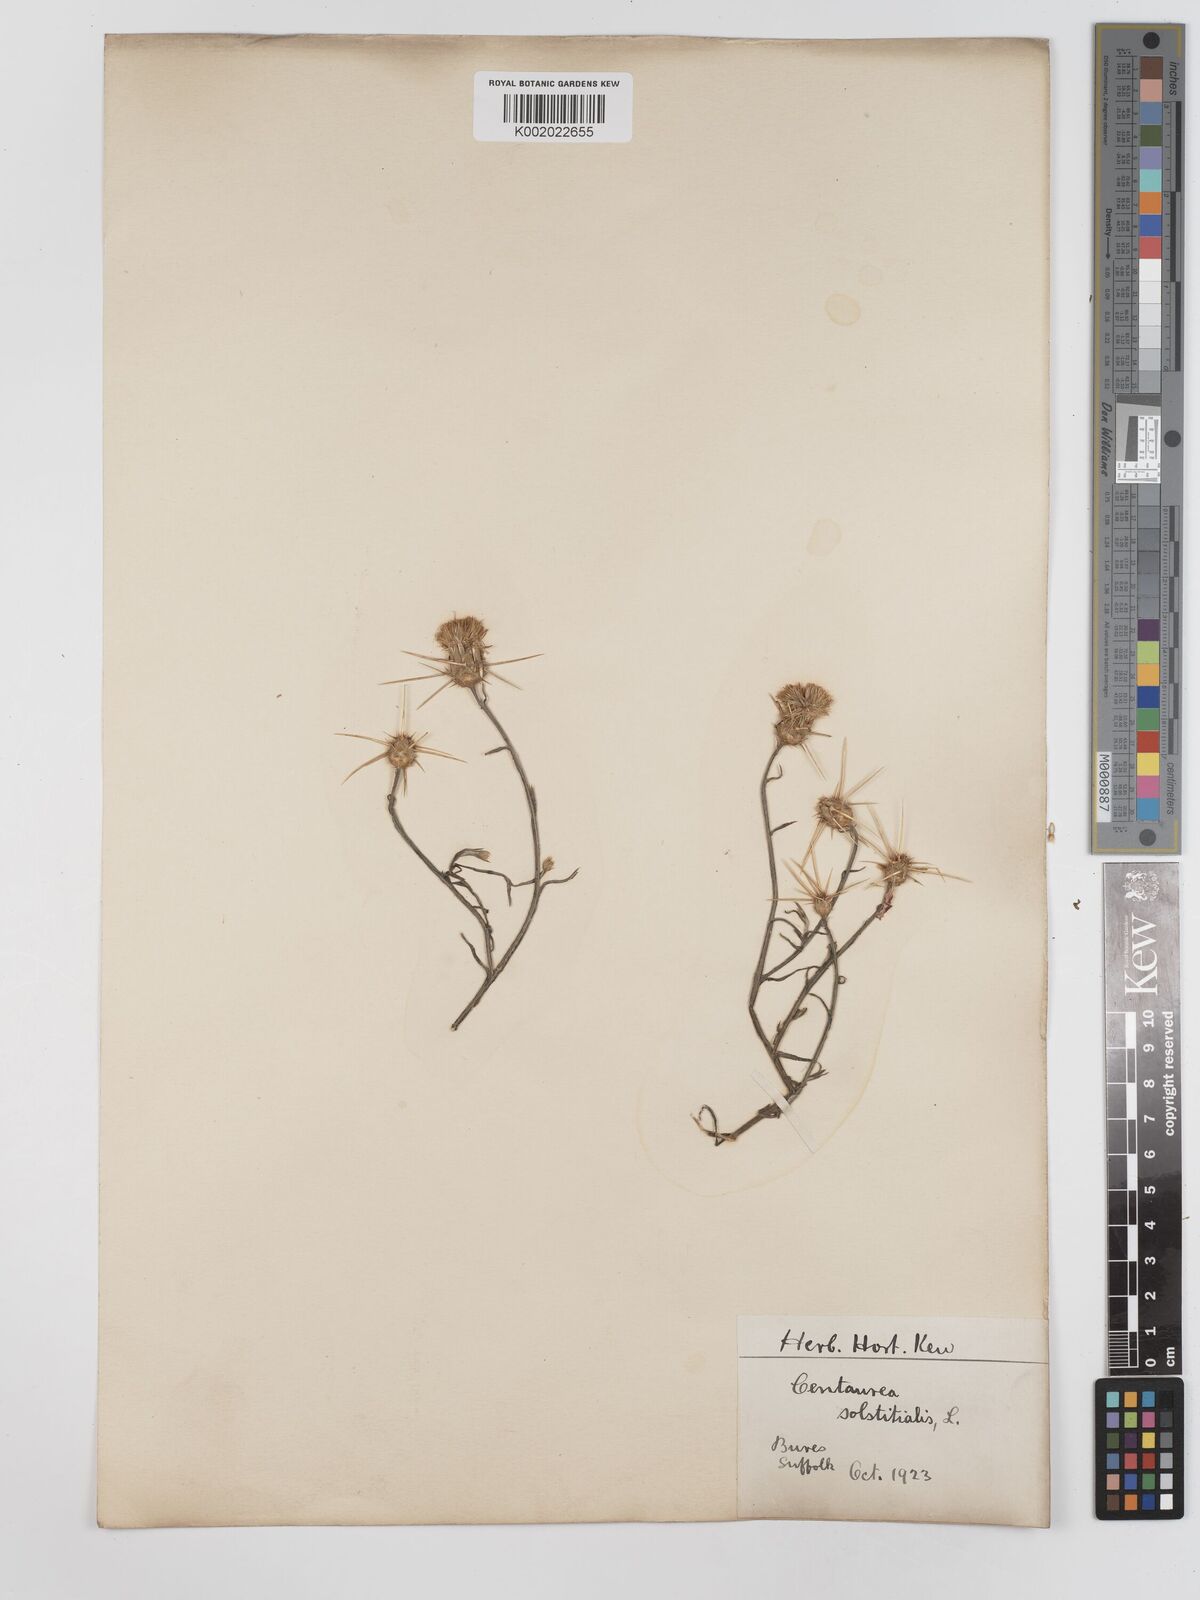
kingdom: Plantae
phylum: Tracheophyta
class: Magnoliopsida
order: Asterales
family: Asteraceae
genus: Centaurea
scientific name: Centaurea solstitialis
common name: Yellow star-thistle
